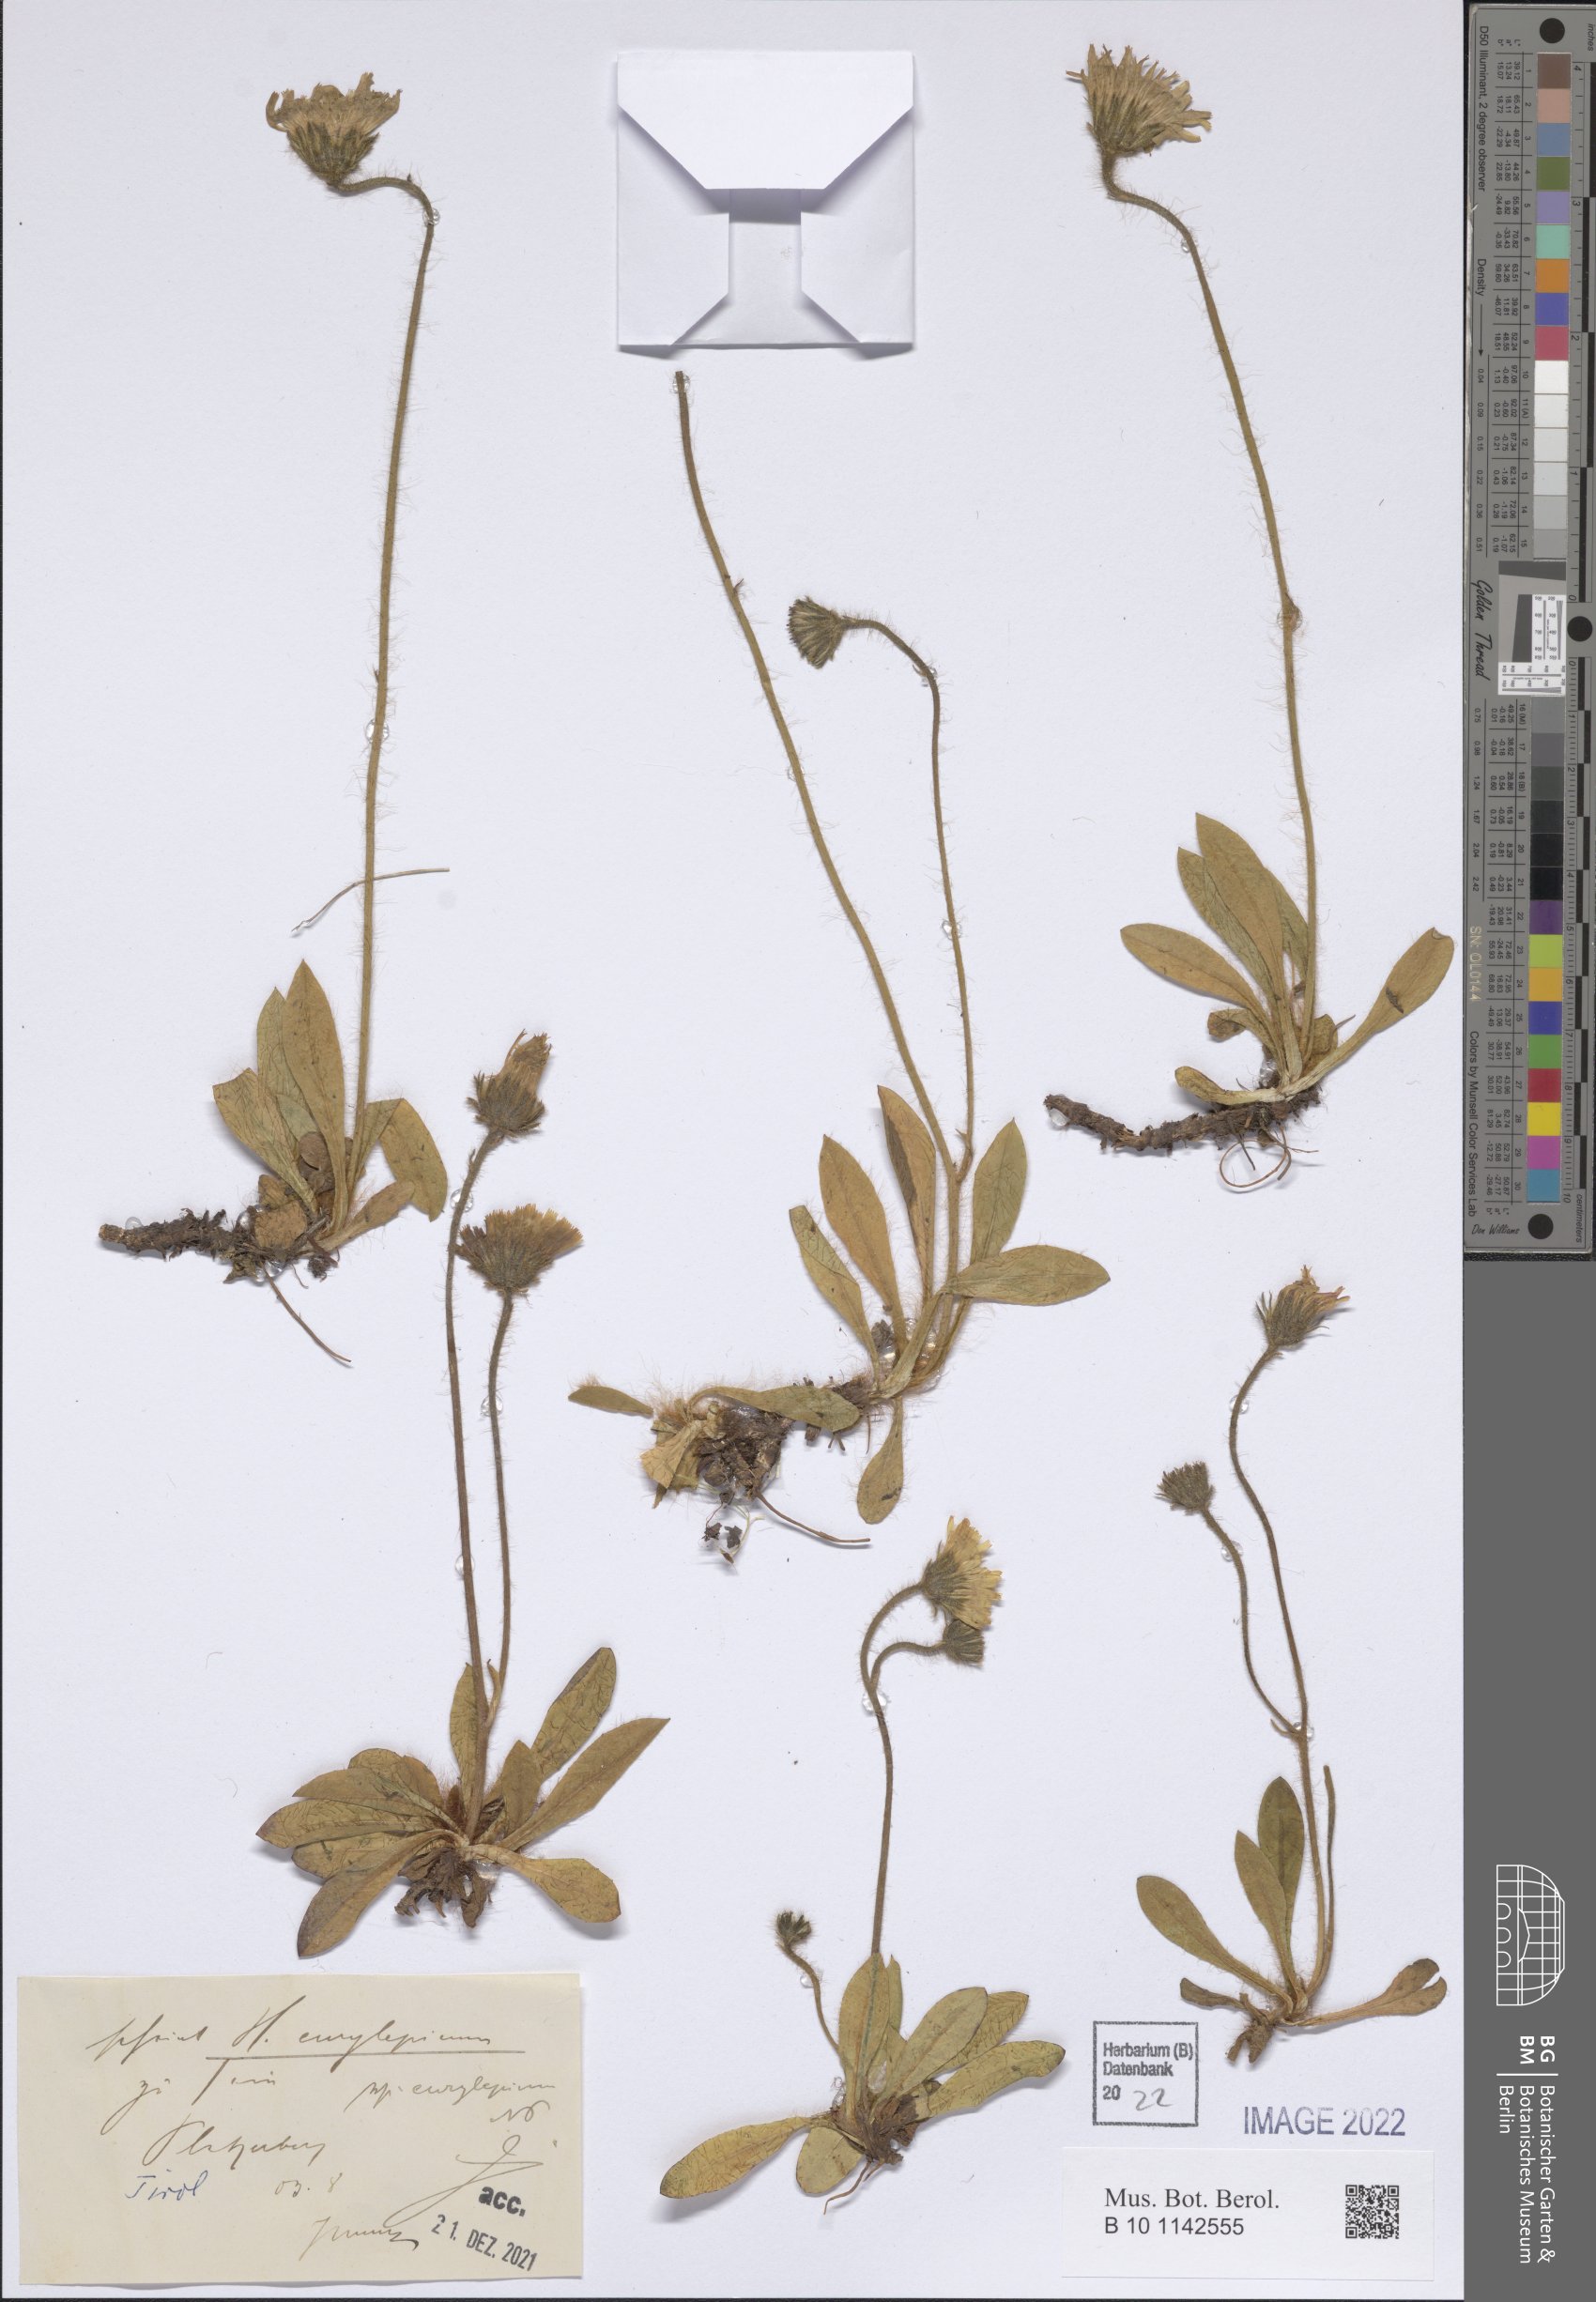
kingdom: Plantae
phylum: Tracheophyta
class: Magnoliopsida
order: Asterales
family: Asteraceae
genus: Pilosella
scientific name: Pilosella pachypila
